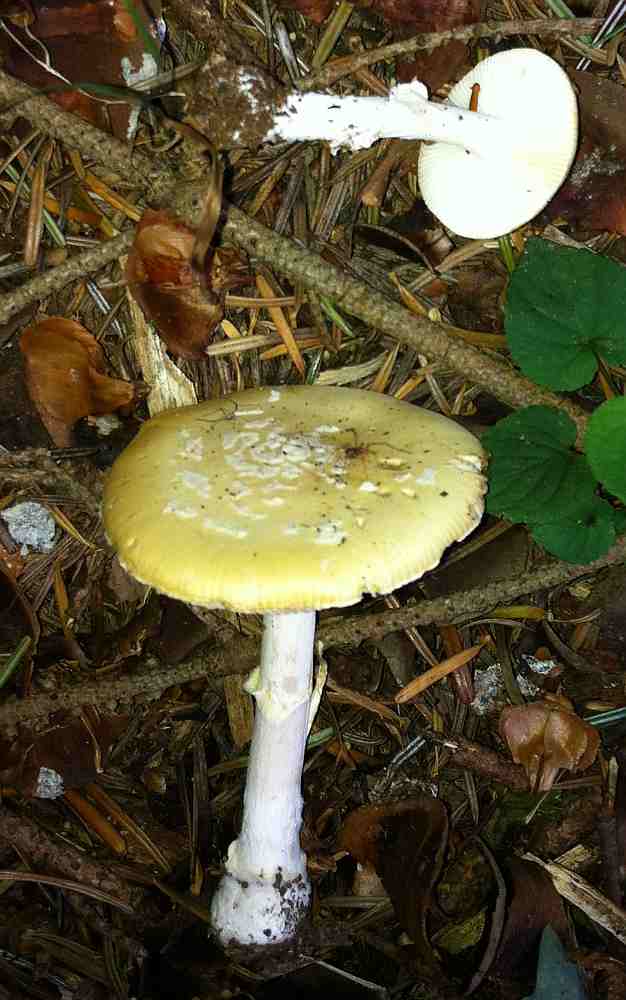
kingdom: Fungi
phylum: Basidiomycota
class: Agaricomycetes
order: Agaricales
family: Amanitaceae
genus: Amanita
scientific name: Amanita gemmata
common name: okkergul fluesvamp
